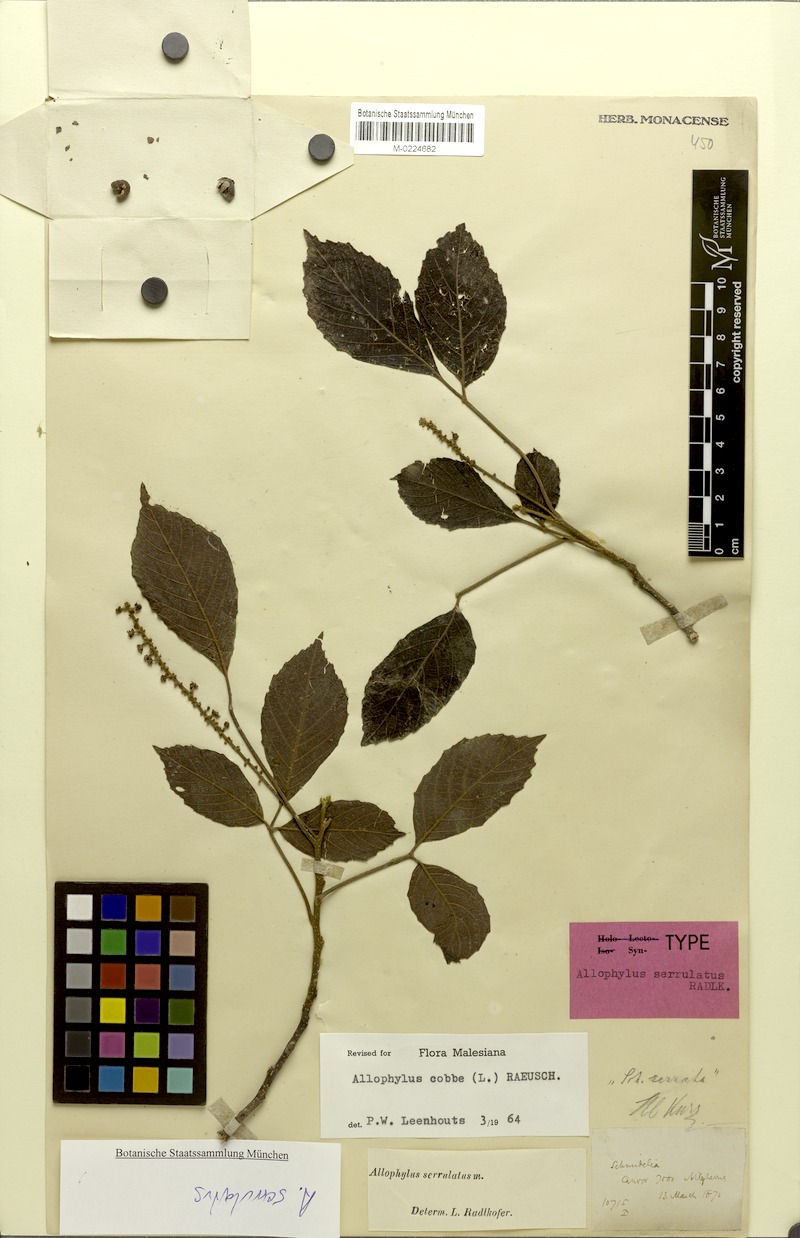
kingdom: Plantae
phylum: Tracheophyta
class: Magnoliopsida
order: Sapindales
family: Sapindaceae
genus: Allophylus
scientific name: Allophylus cobbe
